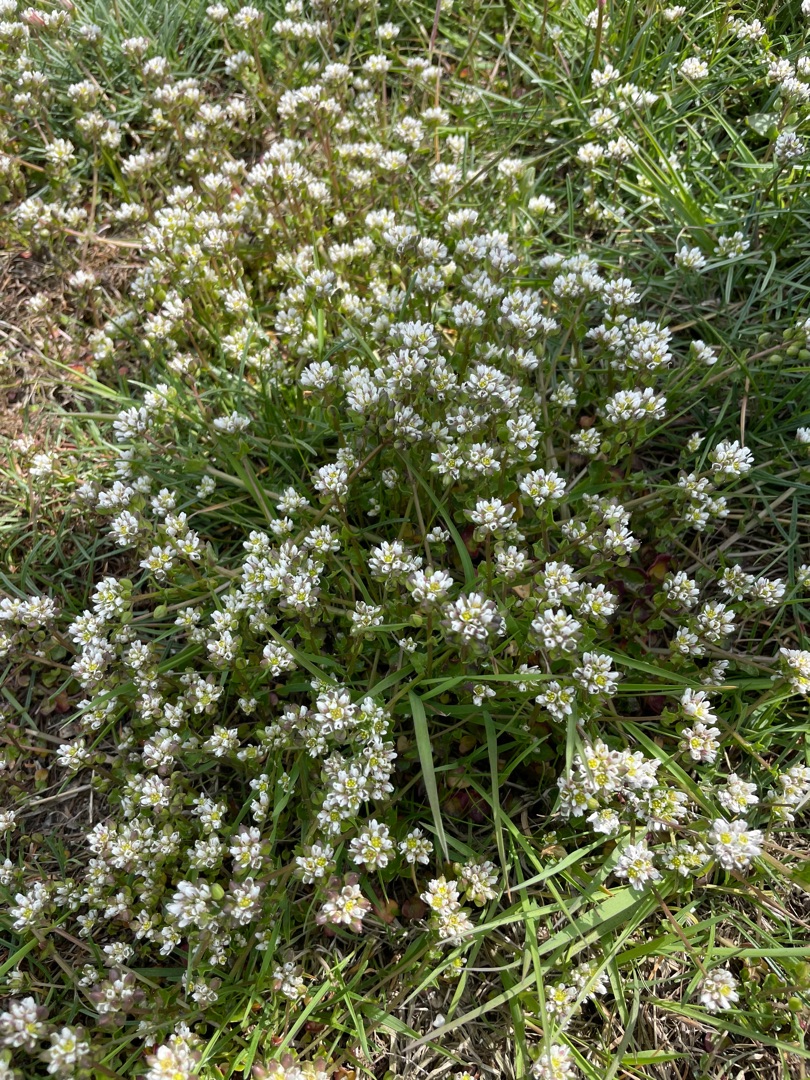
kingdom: Plantae
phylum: Tracheophyta
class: Magnoliopsida
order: Brassicales
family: Brassicaceae
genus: Cochlearia
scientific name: Cochlearia officinalis
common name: Læge-kokleare
